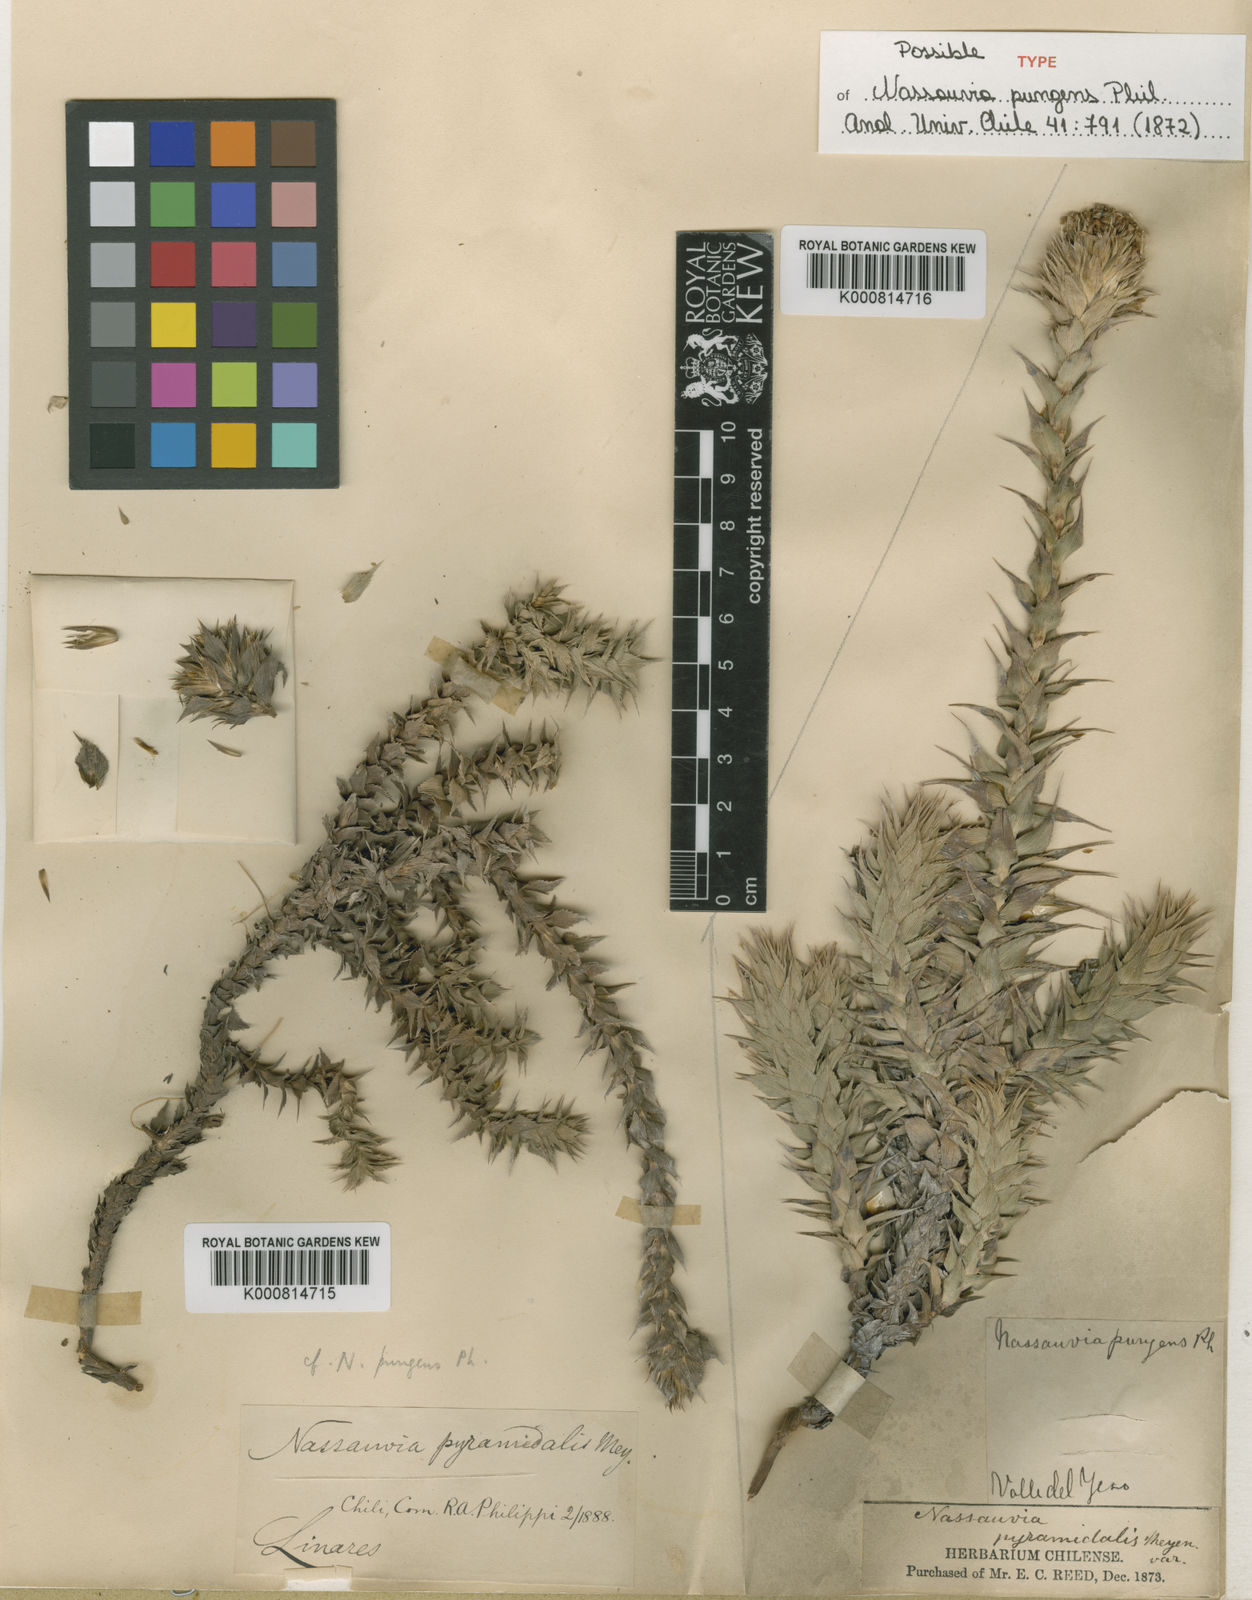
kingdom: Plantae
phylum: Tracheophyta
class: Magnoliopsida
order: Asterales
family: Asteraceae
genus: Nassauvia
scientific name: Nassauvia pyramidalis
